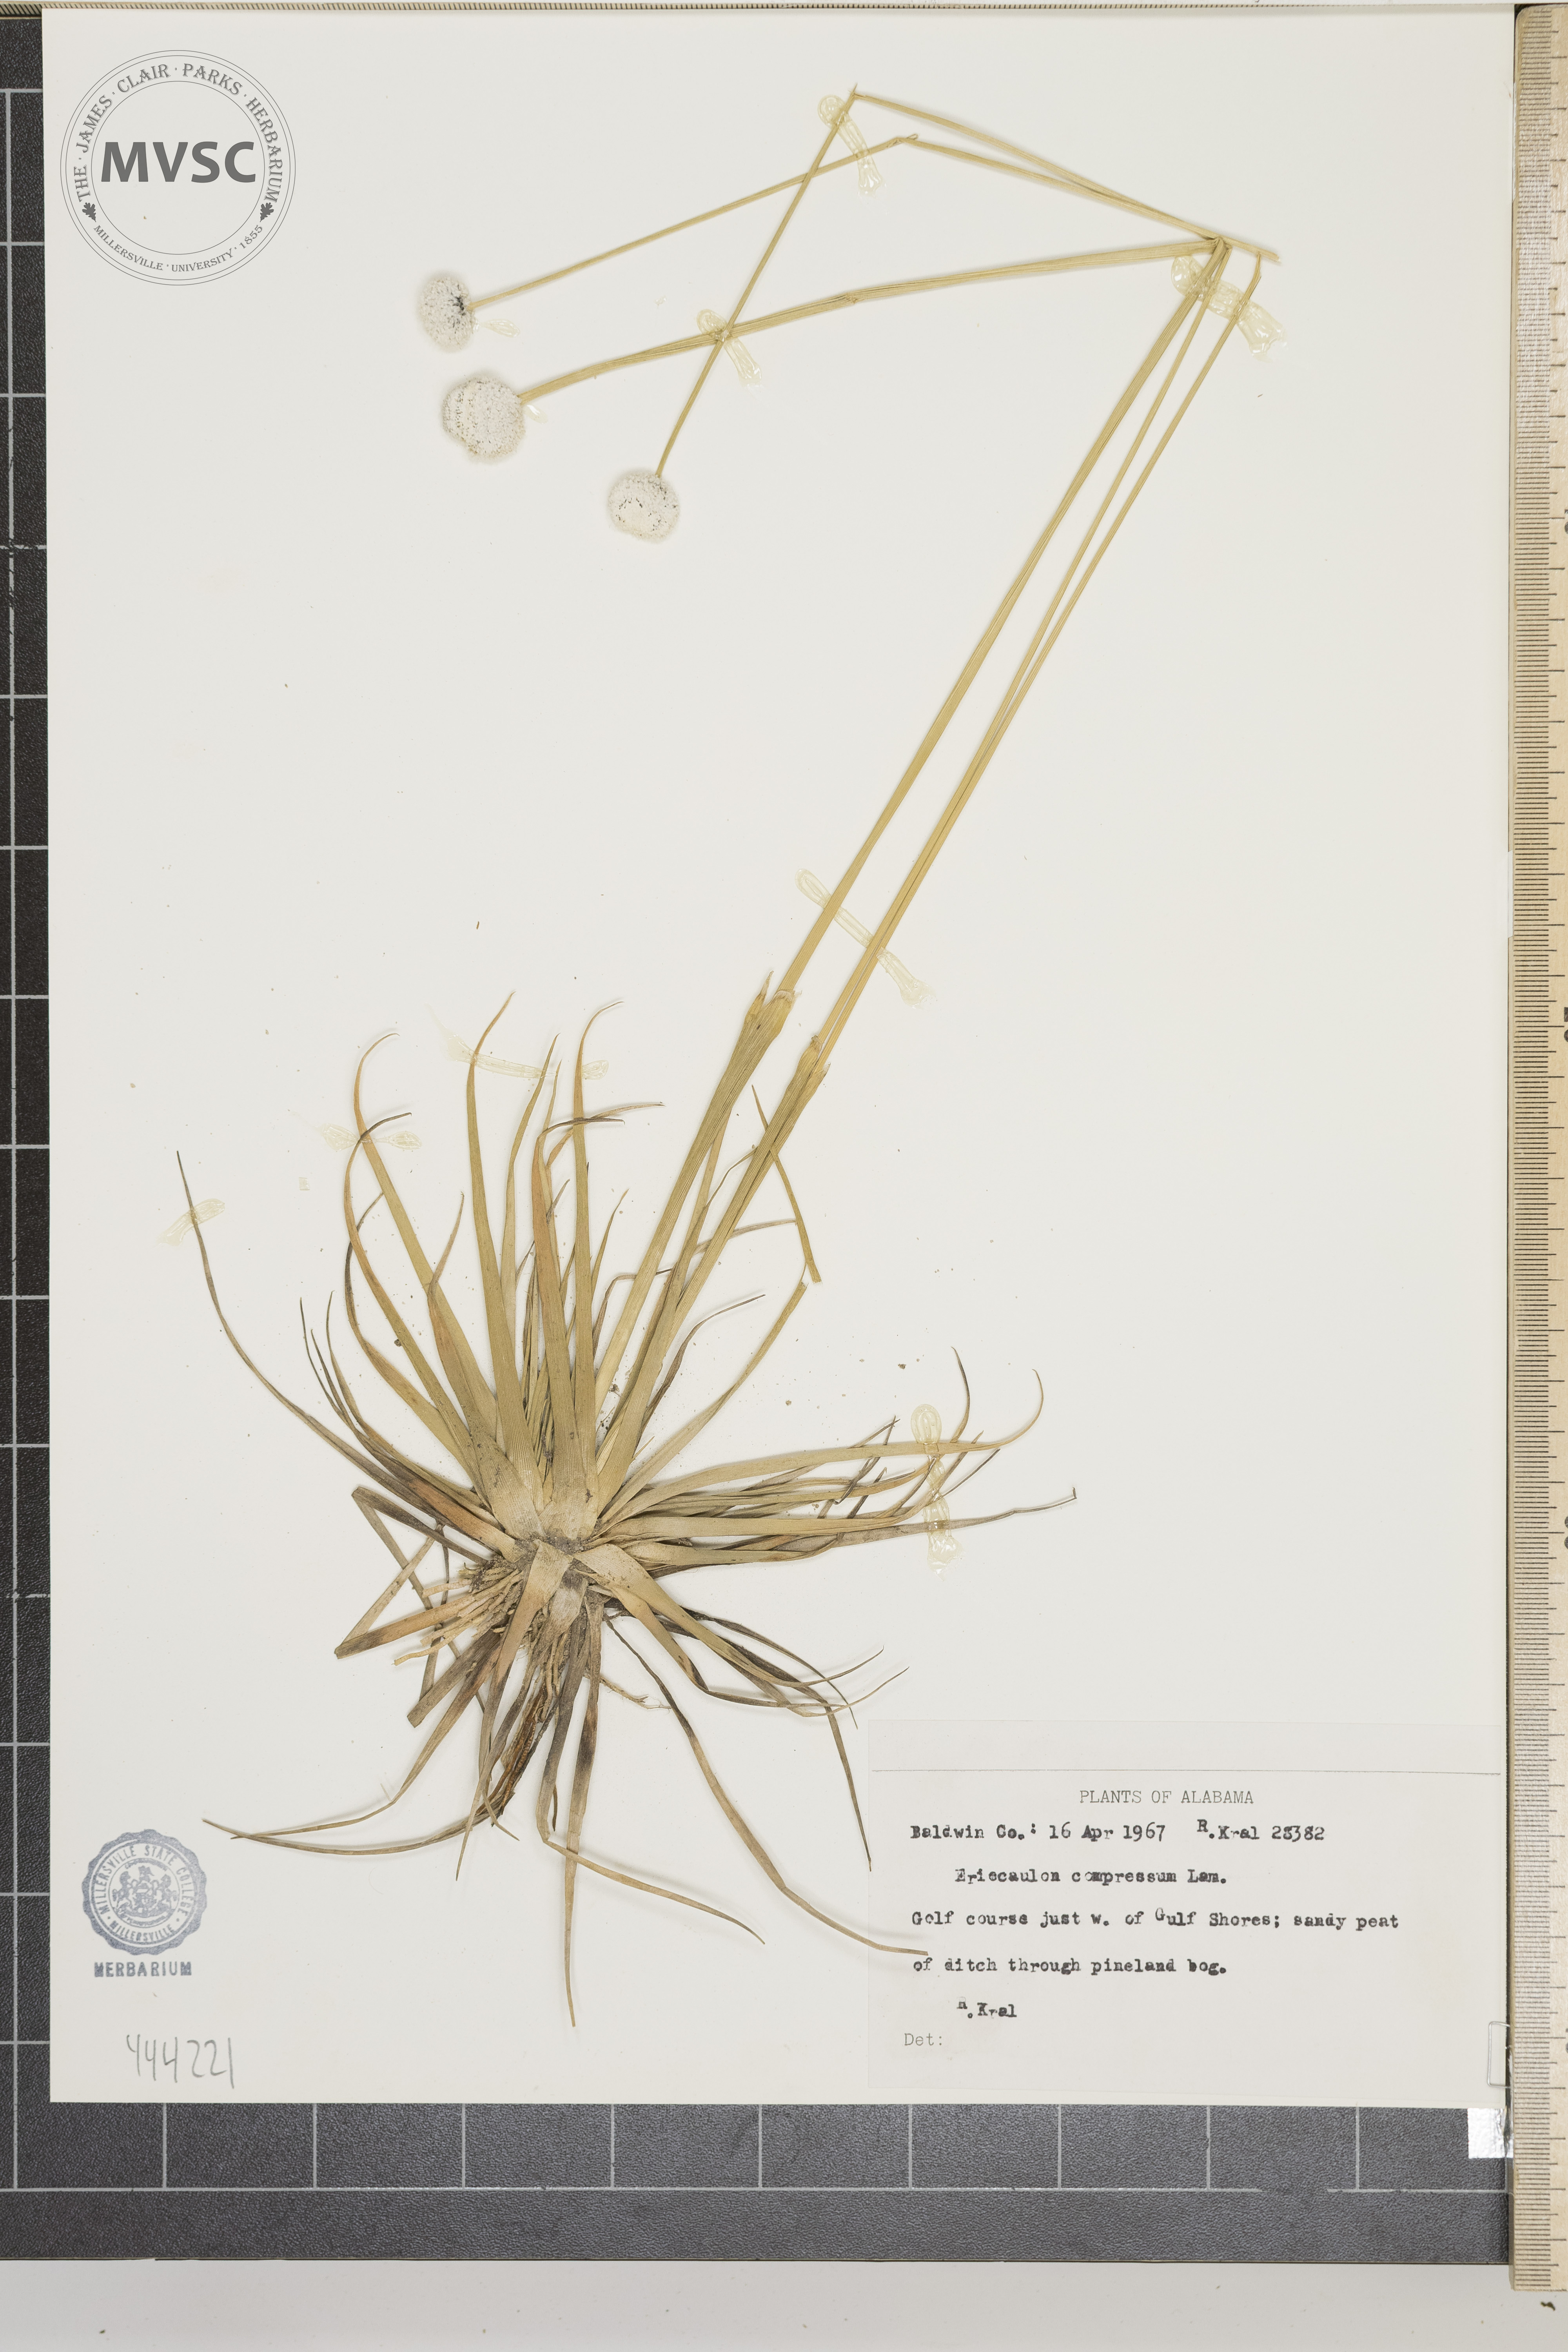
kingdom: Plantae
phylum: Tracheophyta
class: Liliopsida
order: Poales
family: Eriocaulaceae
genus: Eriocaulon
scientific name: Eriocaulon compressum
